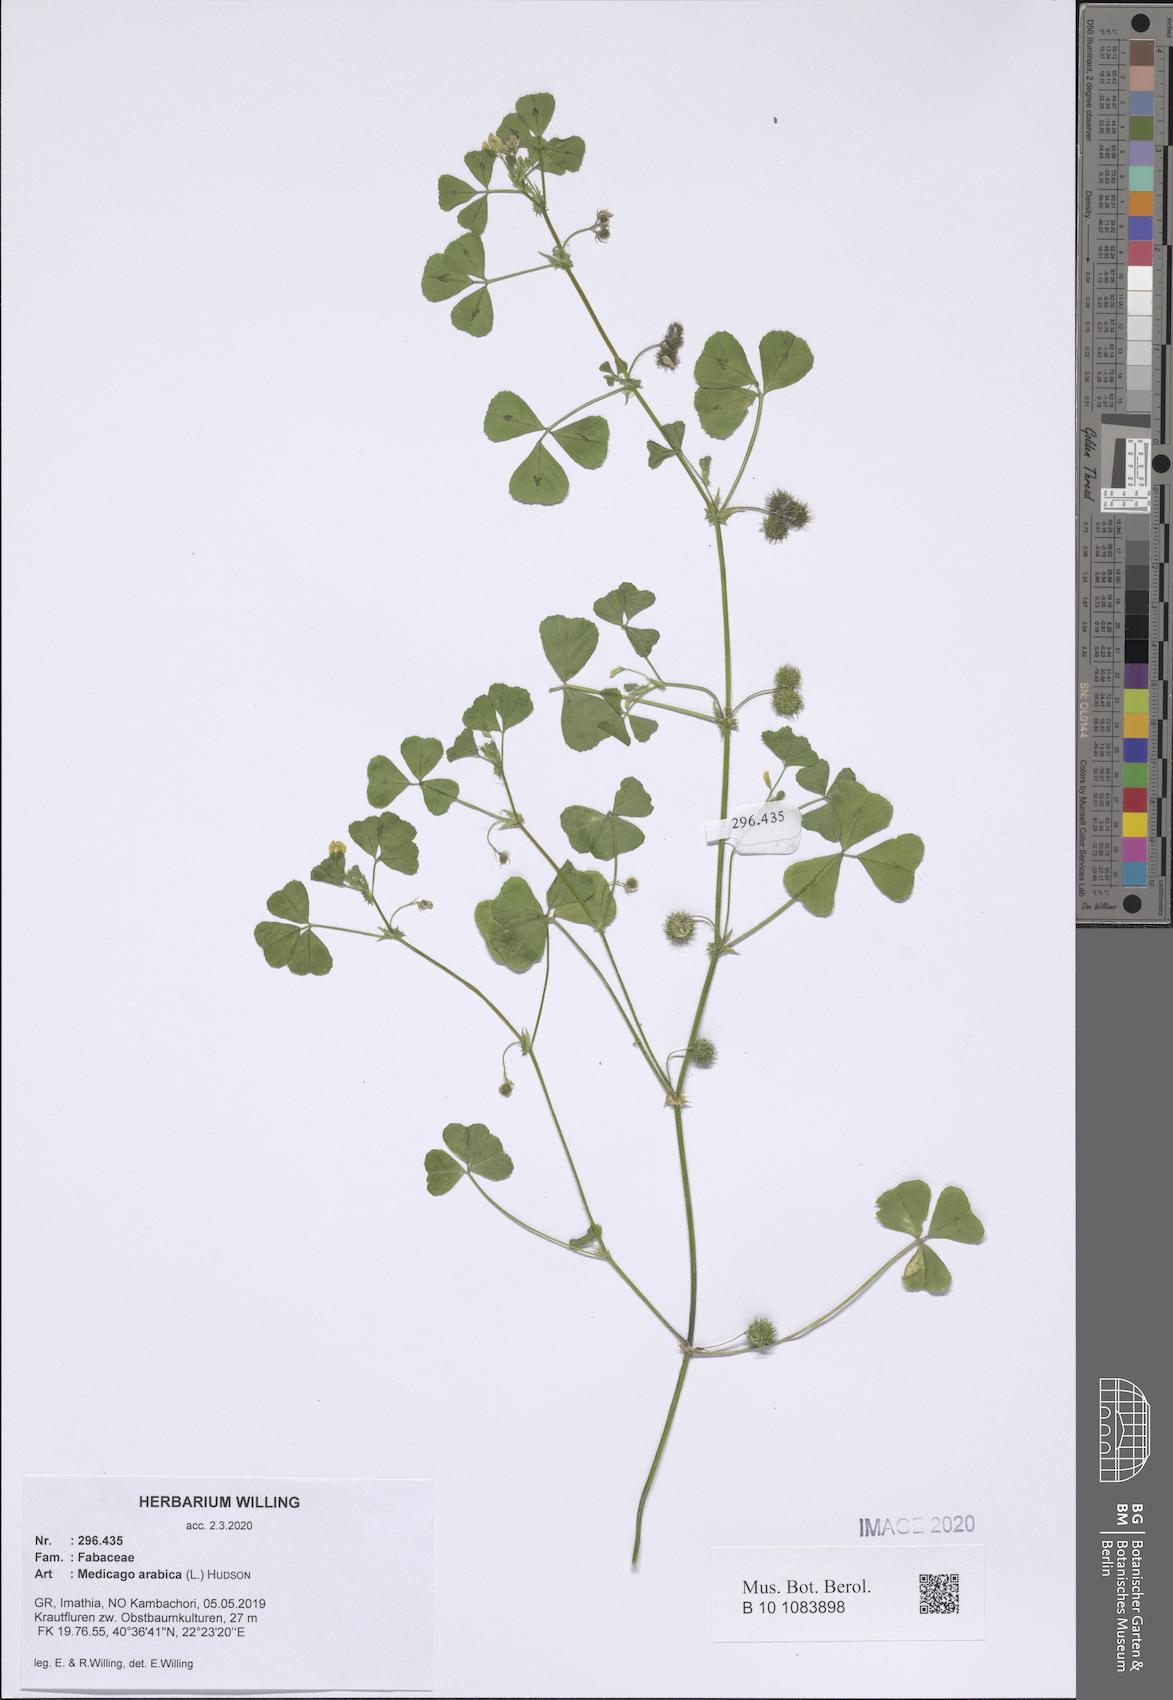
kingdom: Plantae
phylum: Tracheophyta
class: Magnoliopsida
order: Fabales
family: Fabaceae
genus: Medicago
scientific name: Medicago arabica
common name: Spotted medick
